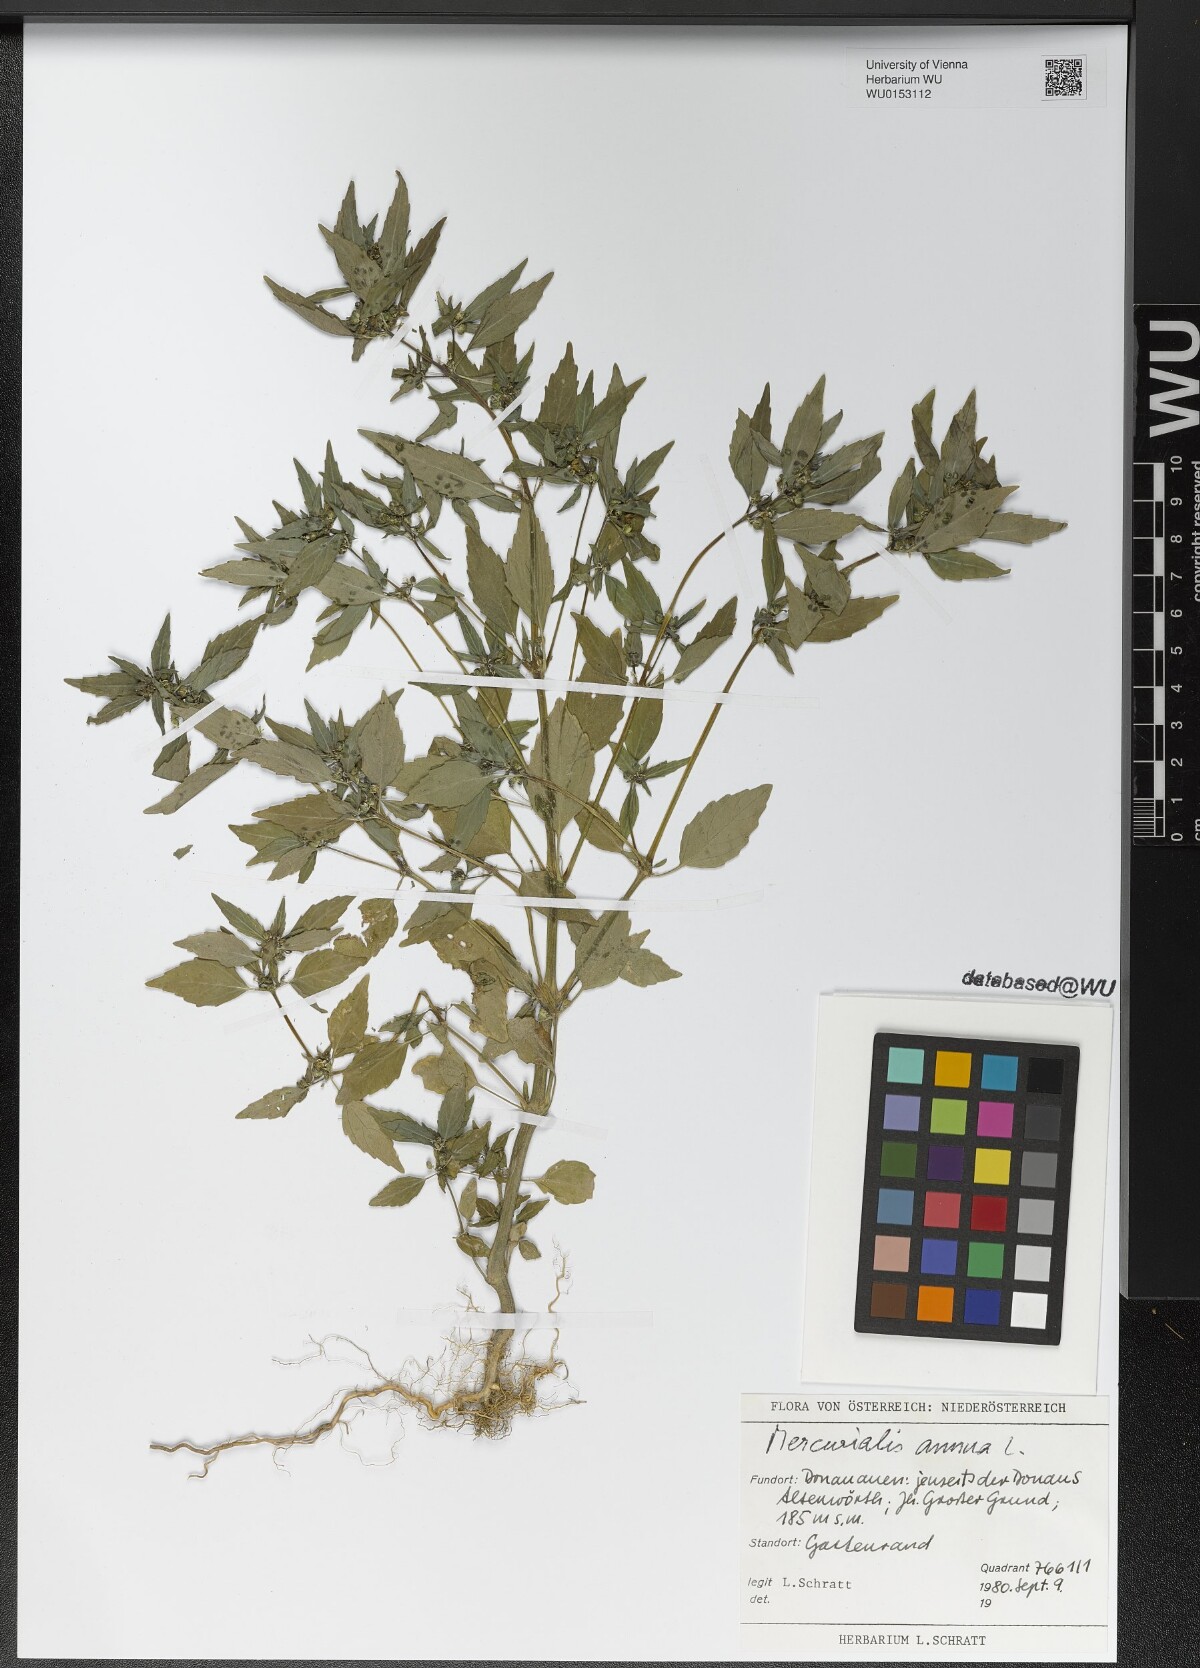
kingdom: Plantae
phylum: Tracheophyta
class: Magnoliopsida
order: Malpighiales
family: Euphorbiaceae
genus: Mercurialis
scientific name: Mercurialis annua
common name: Annual mercury
